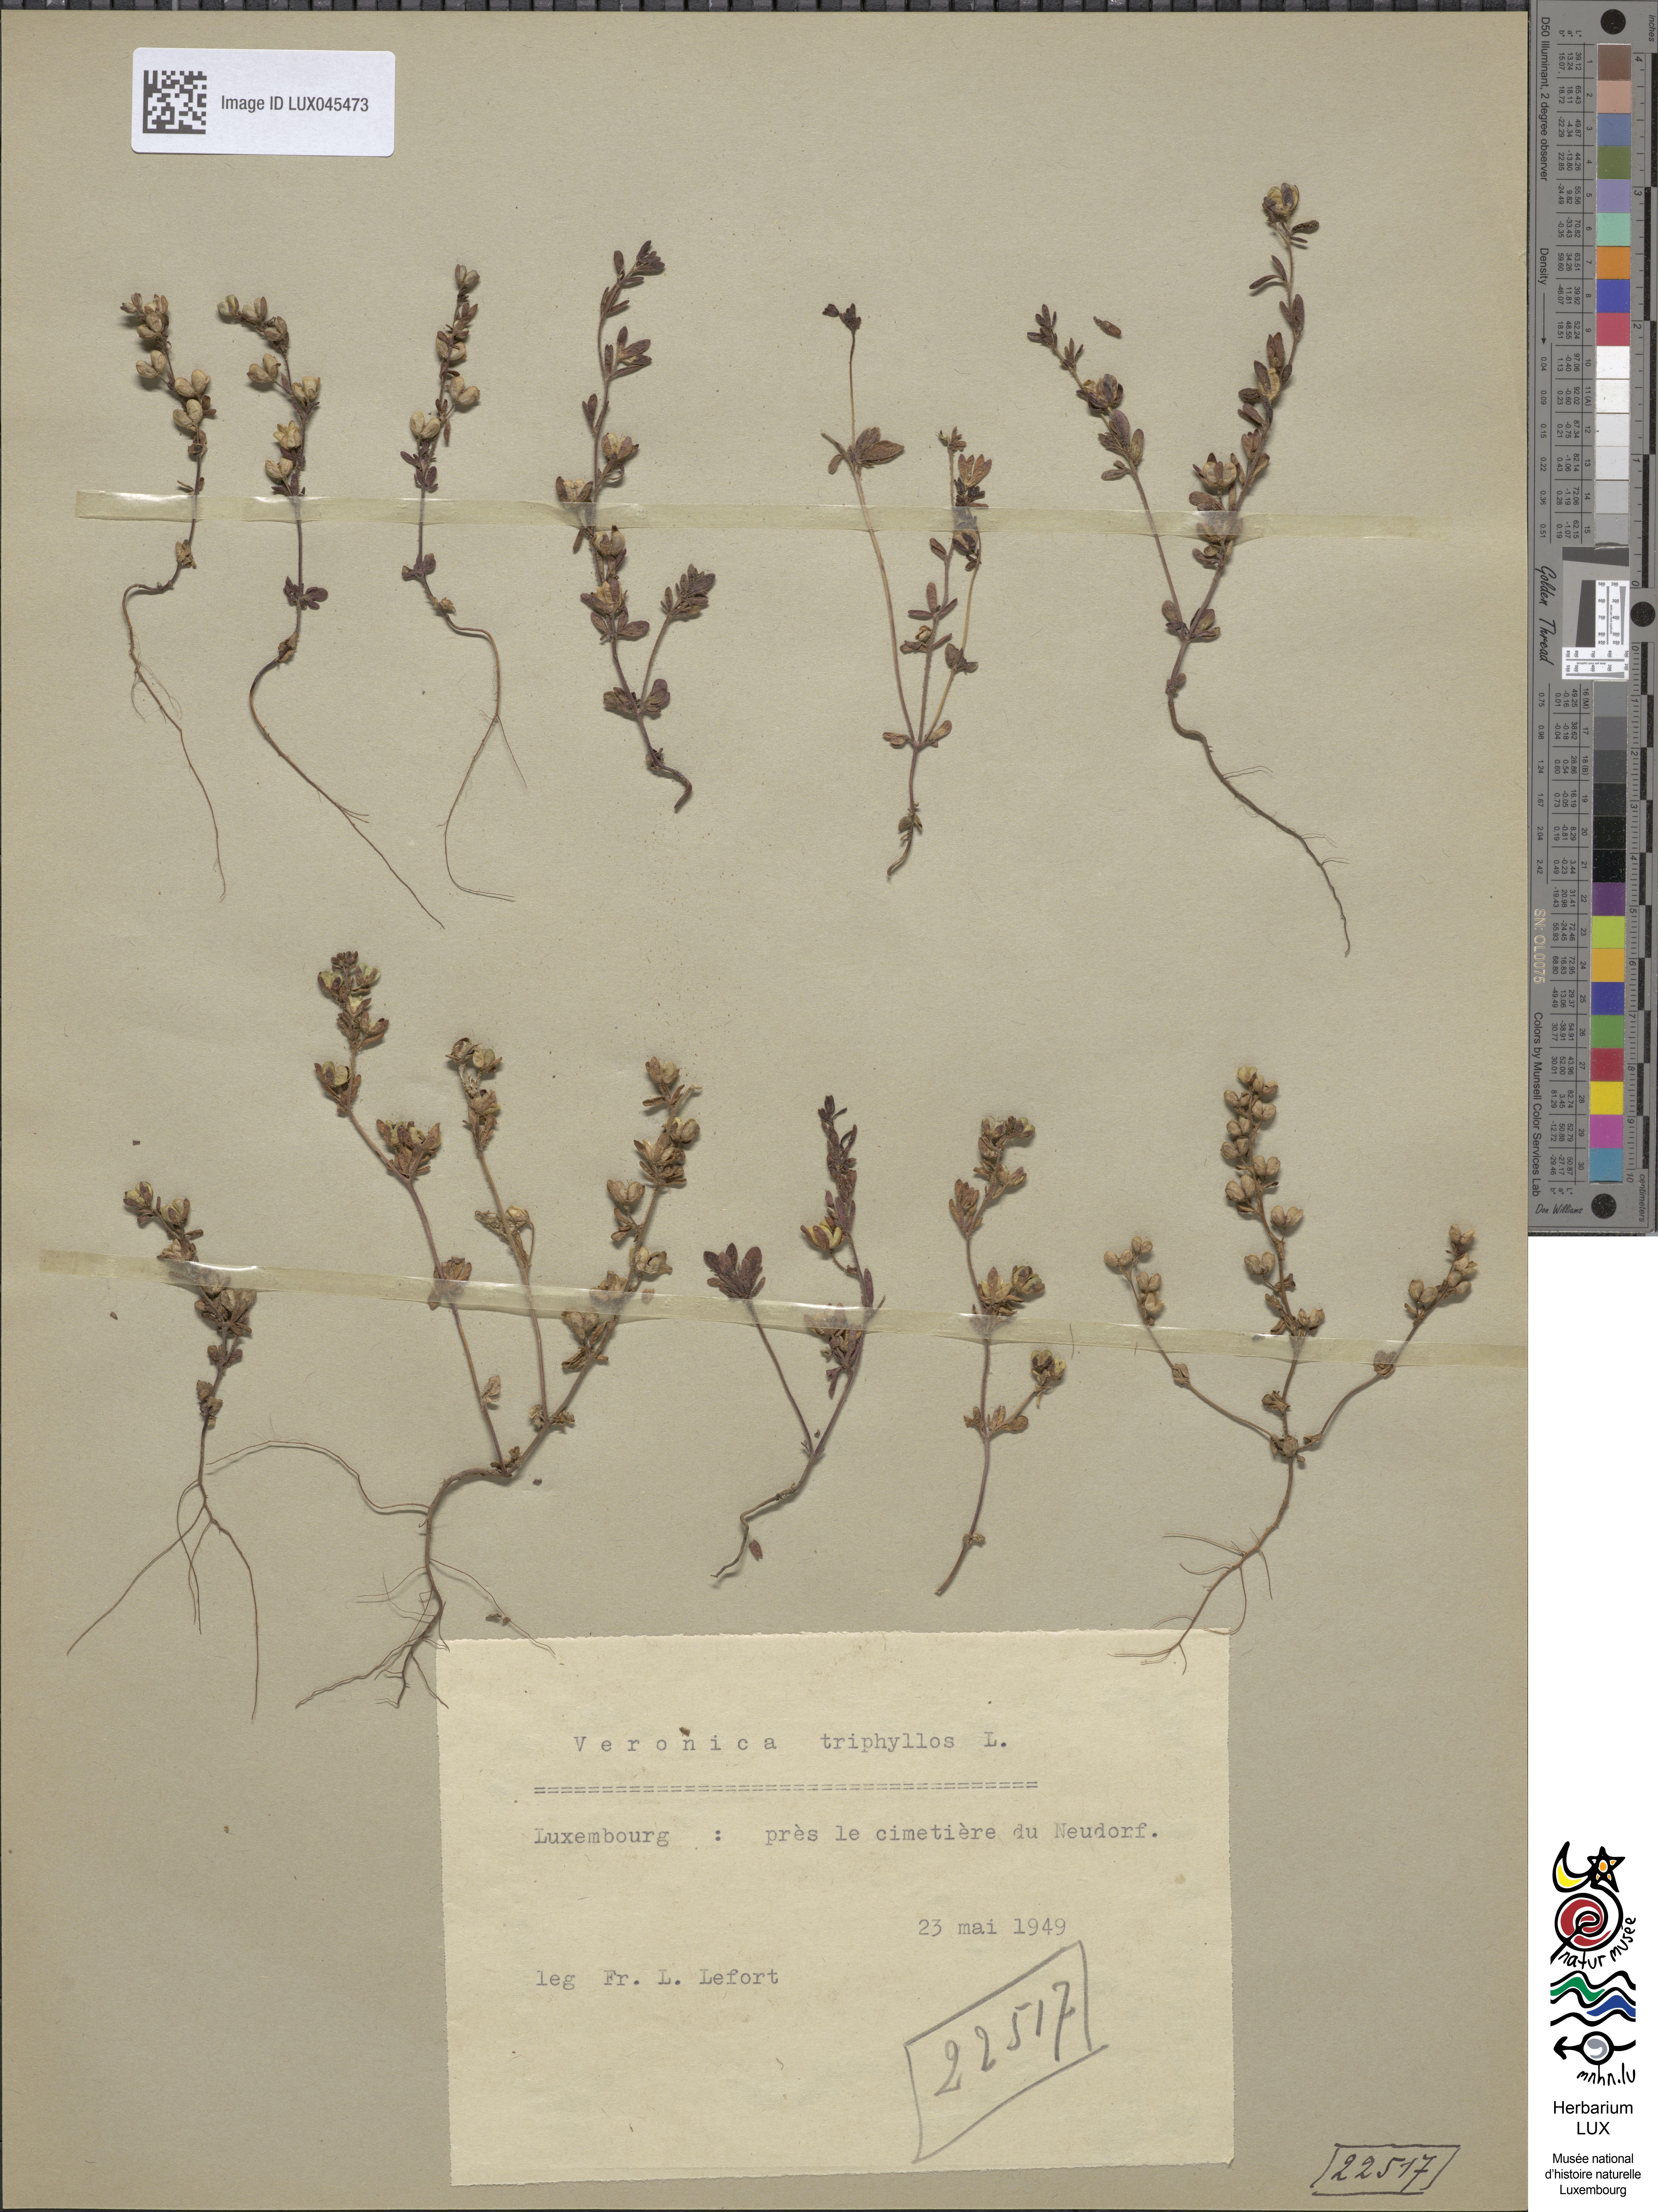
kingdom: Plantae
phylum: Tracheophyta
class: Magnoliopsida
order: Lamiales
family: Plantaginaceae
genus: Veronica
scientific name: Veronica triphyllos
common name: Fingered speedwell
